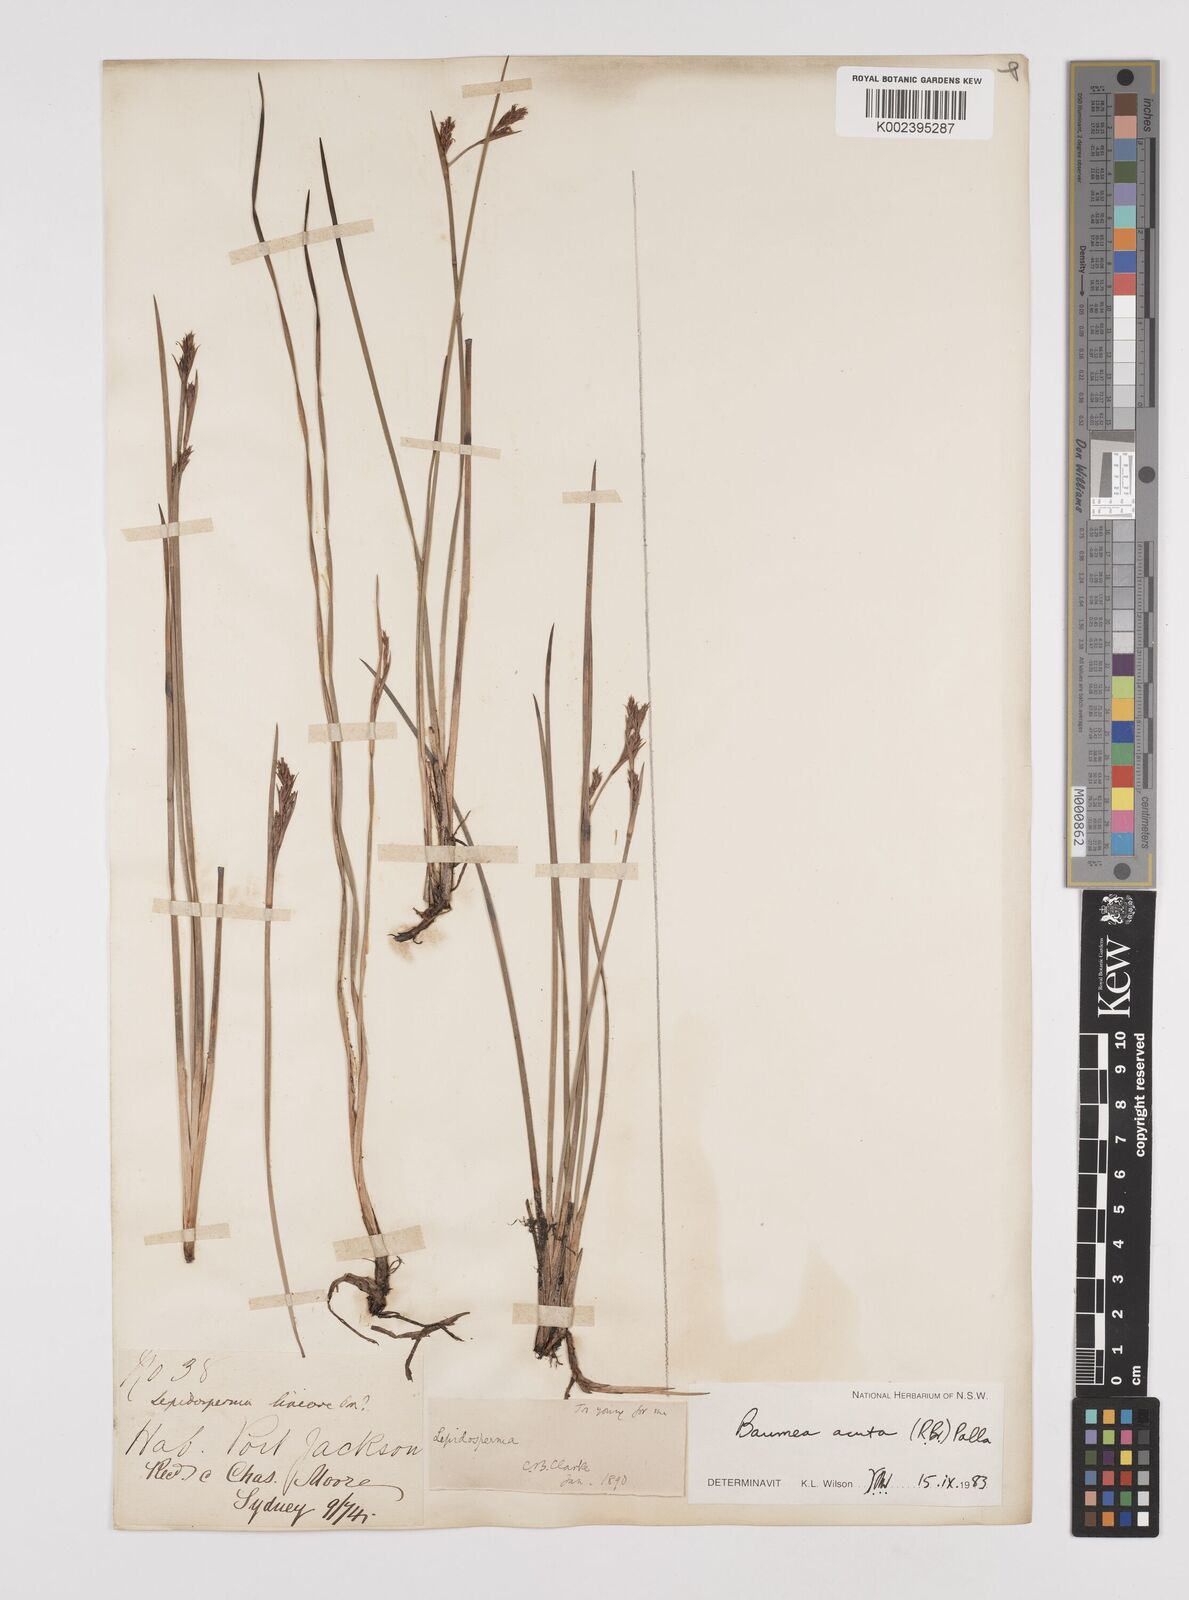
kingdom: Plantae
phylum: Tracheophyta
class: Liliopsida
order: Poales
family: Cyperaceae
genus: Machaerina
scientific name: Machaerina acuta
